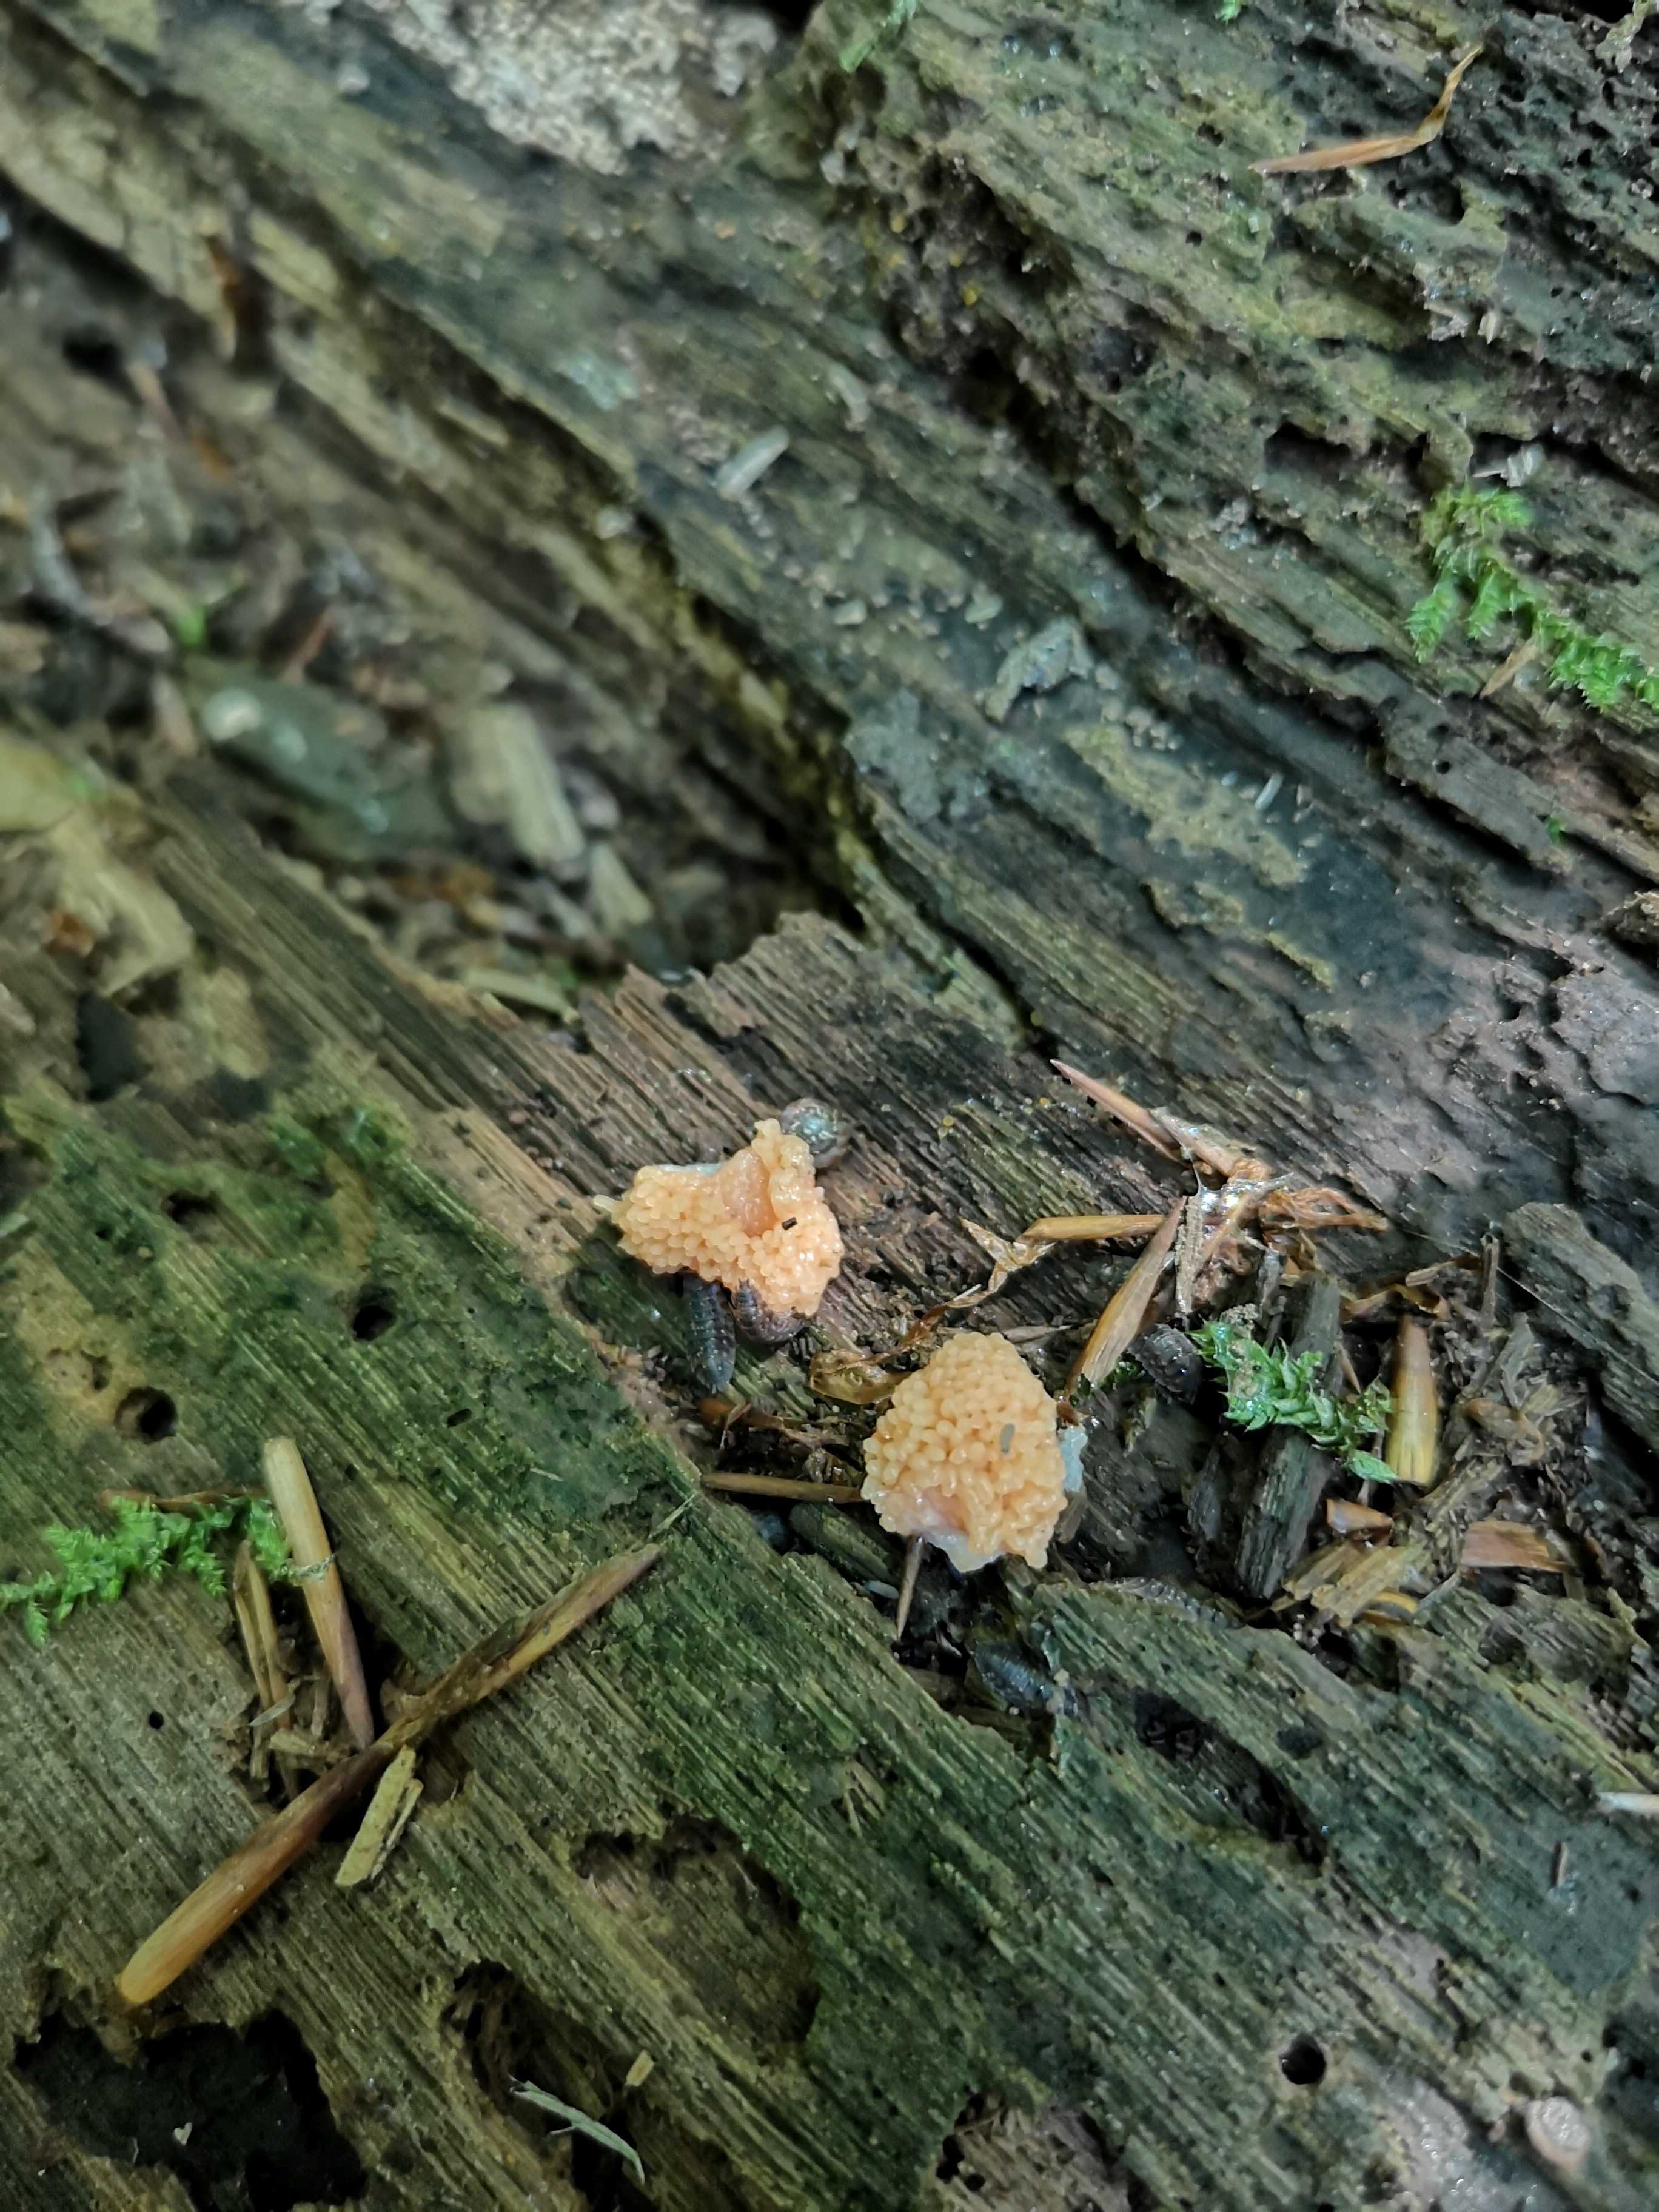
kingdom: Protozoa
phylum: Mycetozoa
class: Myxomycetes
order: Cribrariales
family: Tubiferaceae
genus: Tubifera
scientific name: Tubifera ferruginosa
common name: kanel-støvrør
